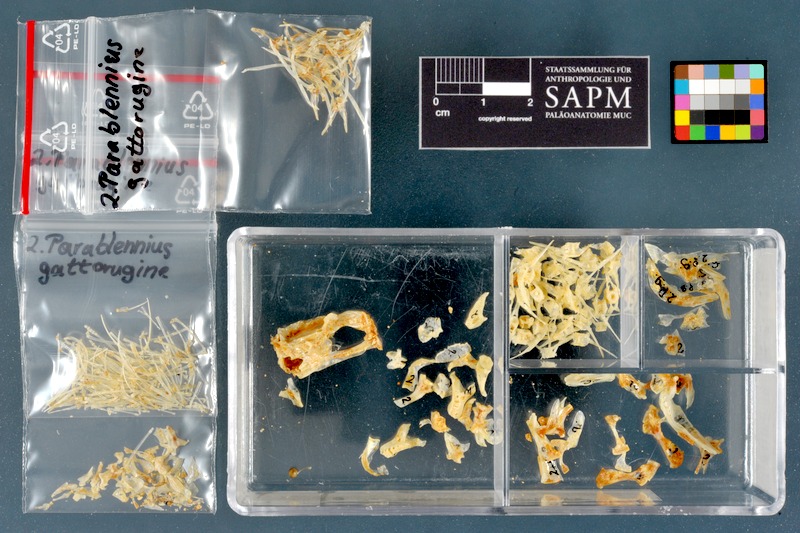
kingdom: Animalia
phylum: Chordata
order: Perciformes
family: Blenniidae
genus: Parablennius
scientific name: Parablennius gattorugine
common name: Tompot blenny
